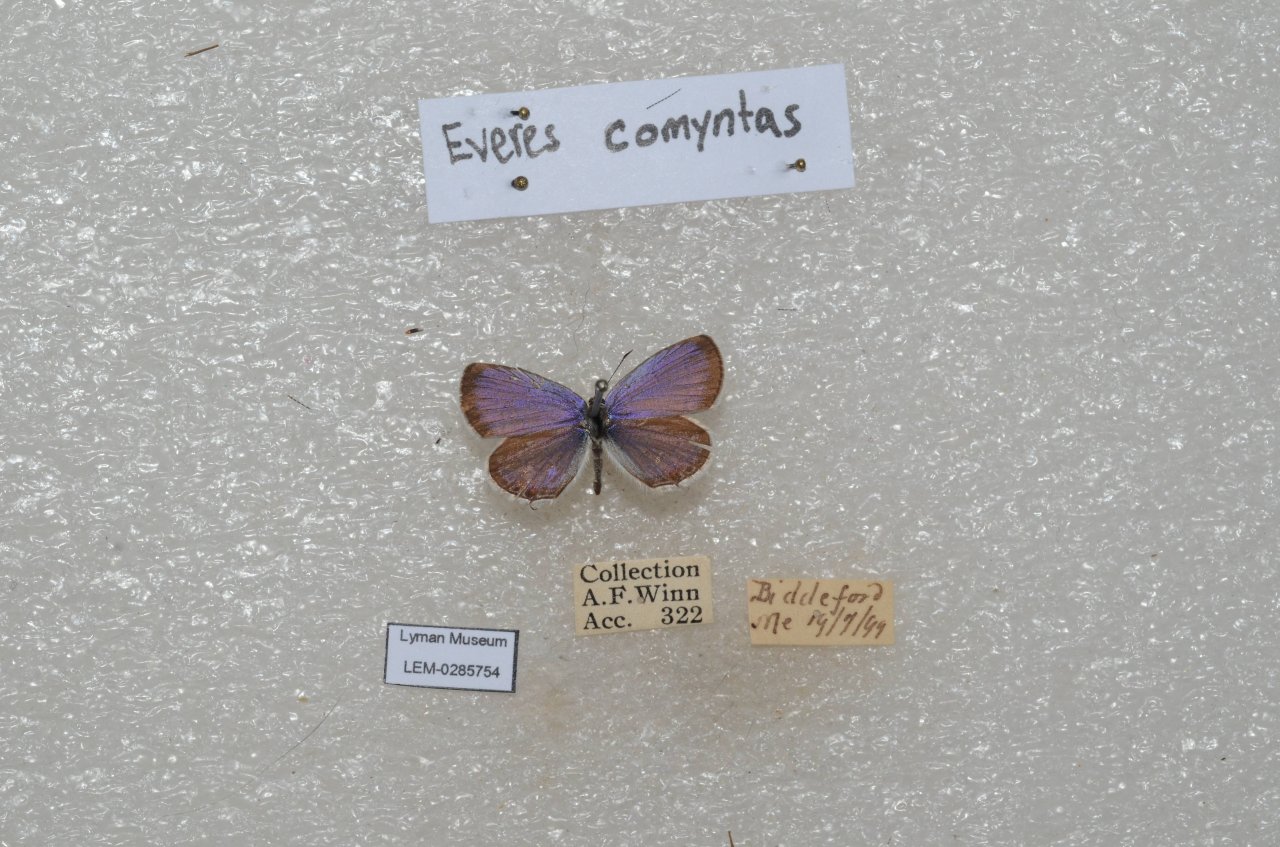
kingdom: Animalia
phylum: Arthropoda
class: Insecta
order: Lepidoptera
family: Lycaenidae
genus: Elkalyce
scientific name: Elkalyce comyntas
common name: Eastern Tailed-Blue
